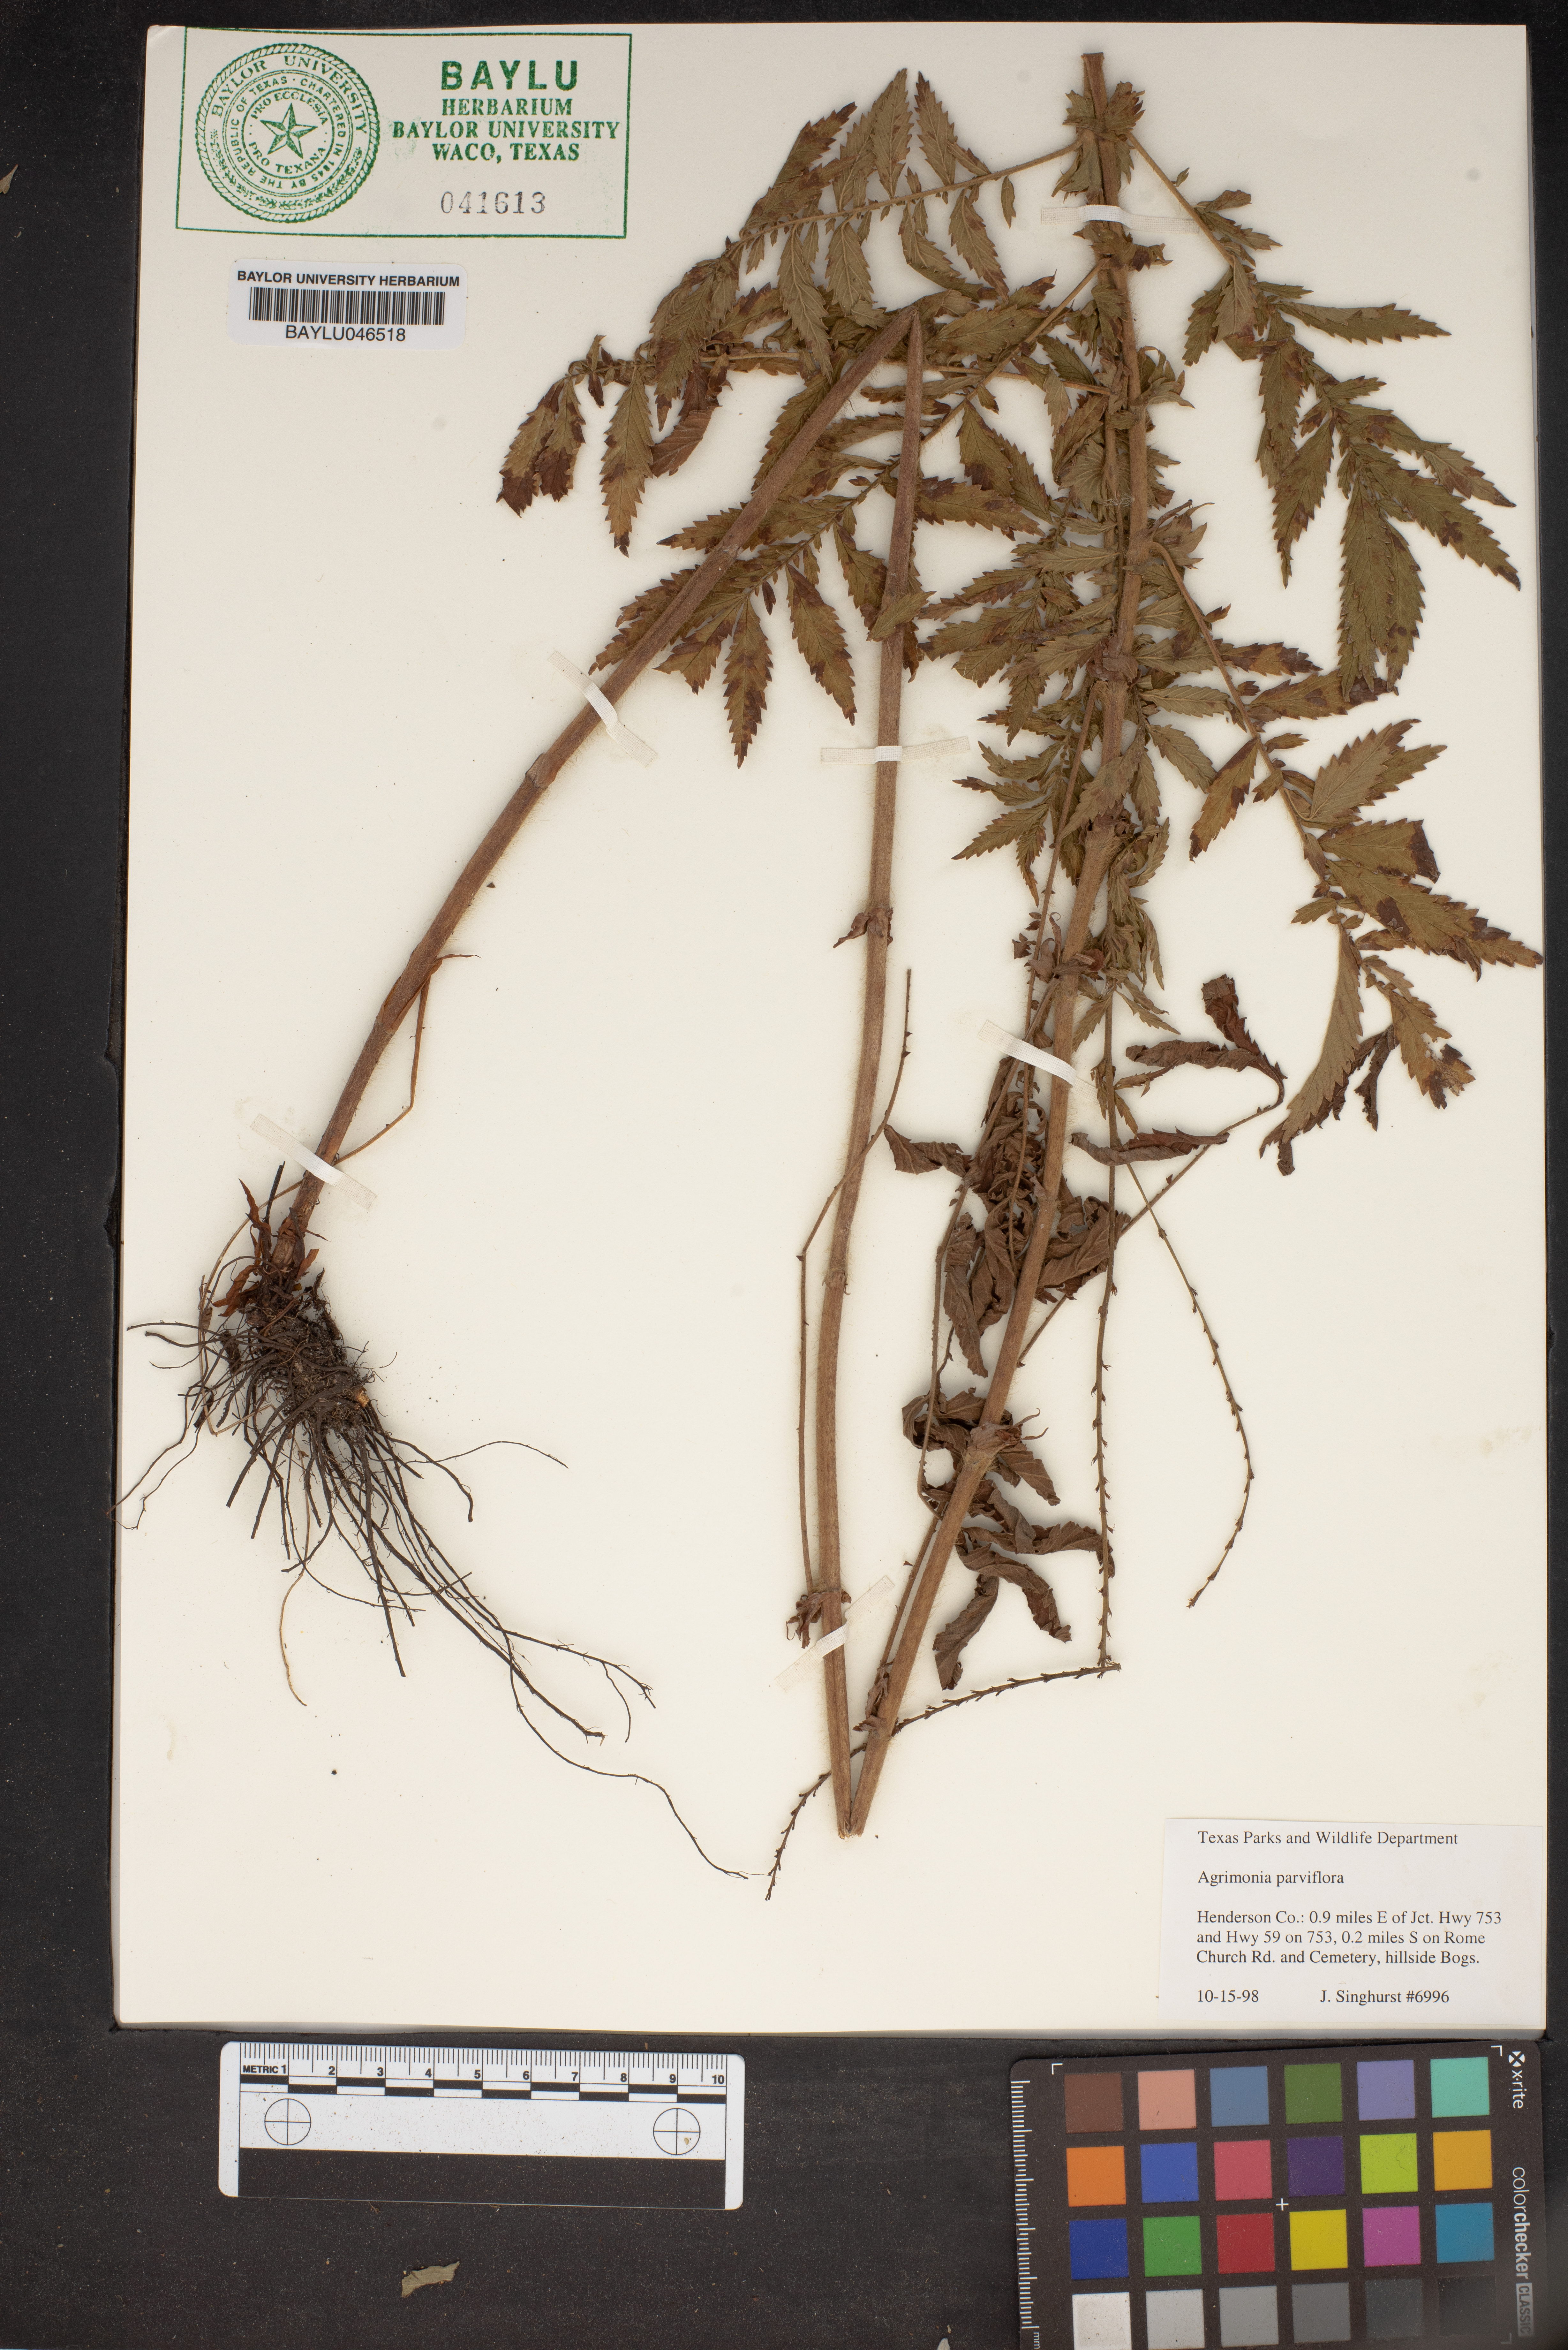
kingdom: Plantae
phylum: Tracheophyta
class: Magnoliopsida
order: Rosales
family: Rosaceae
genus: Agrimonia
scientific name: Agrimonia parviflora
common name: Harvest-lice
